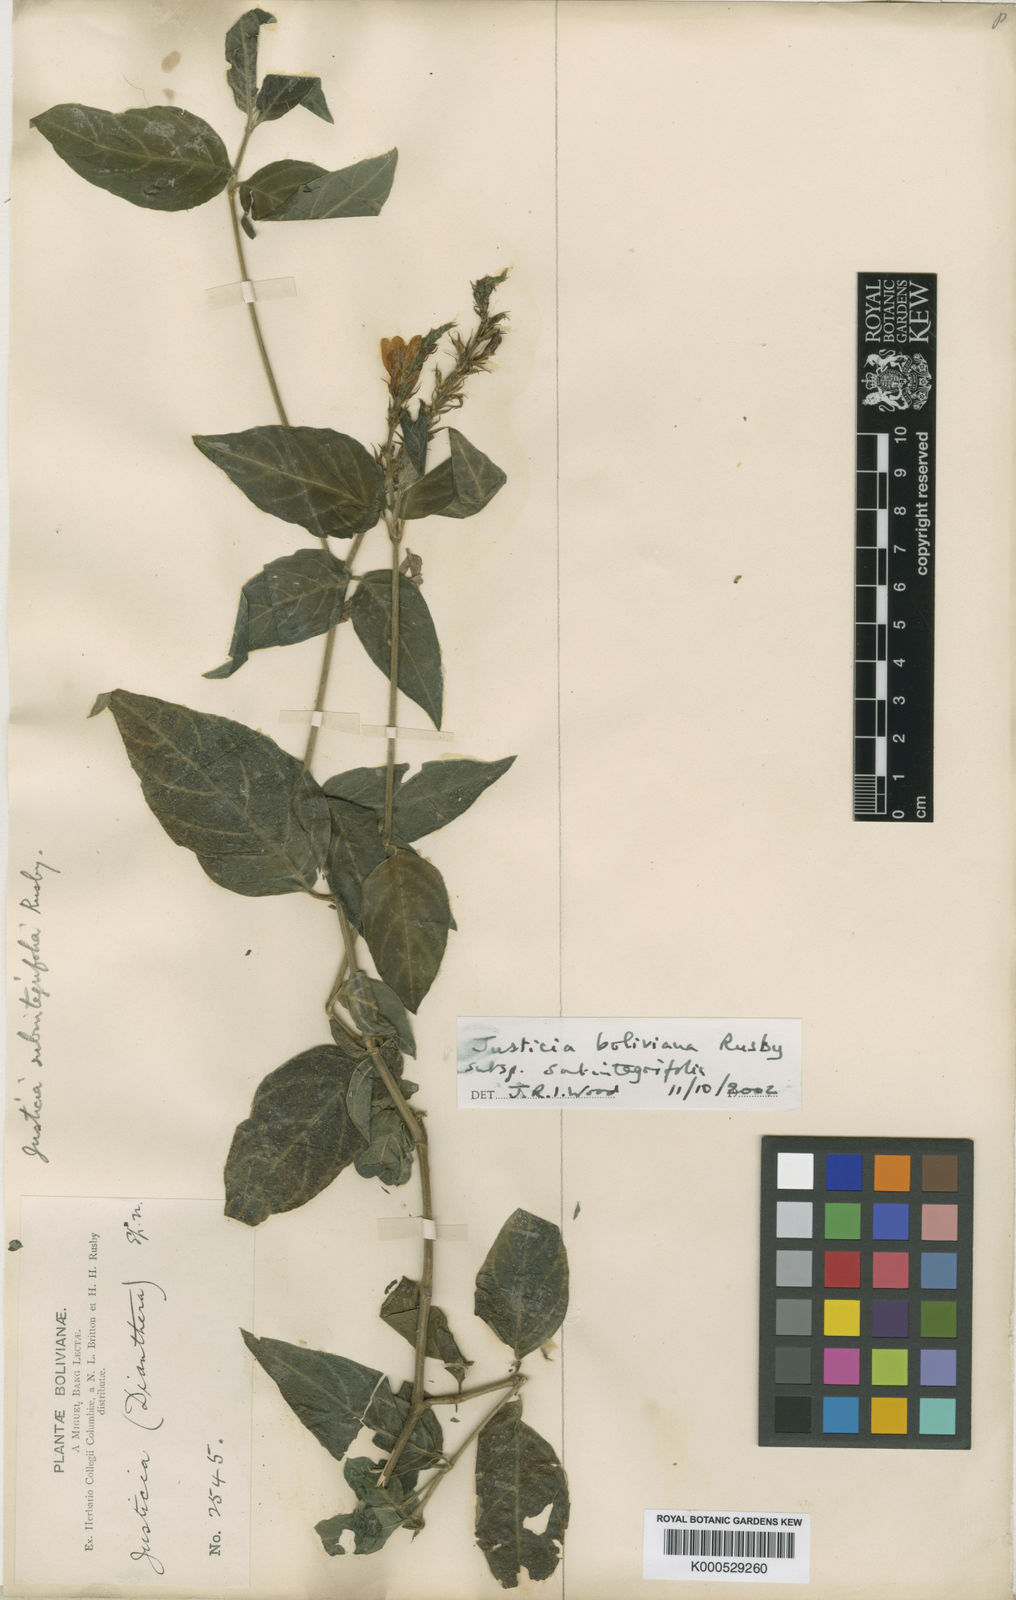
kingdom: Plantae
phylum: Tracheophyta
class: Magnoliopsida
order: Lamiales
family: Acanthaceae
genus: Justicia
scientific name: Justicia boliviana
